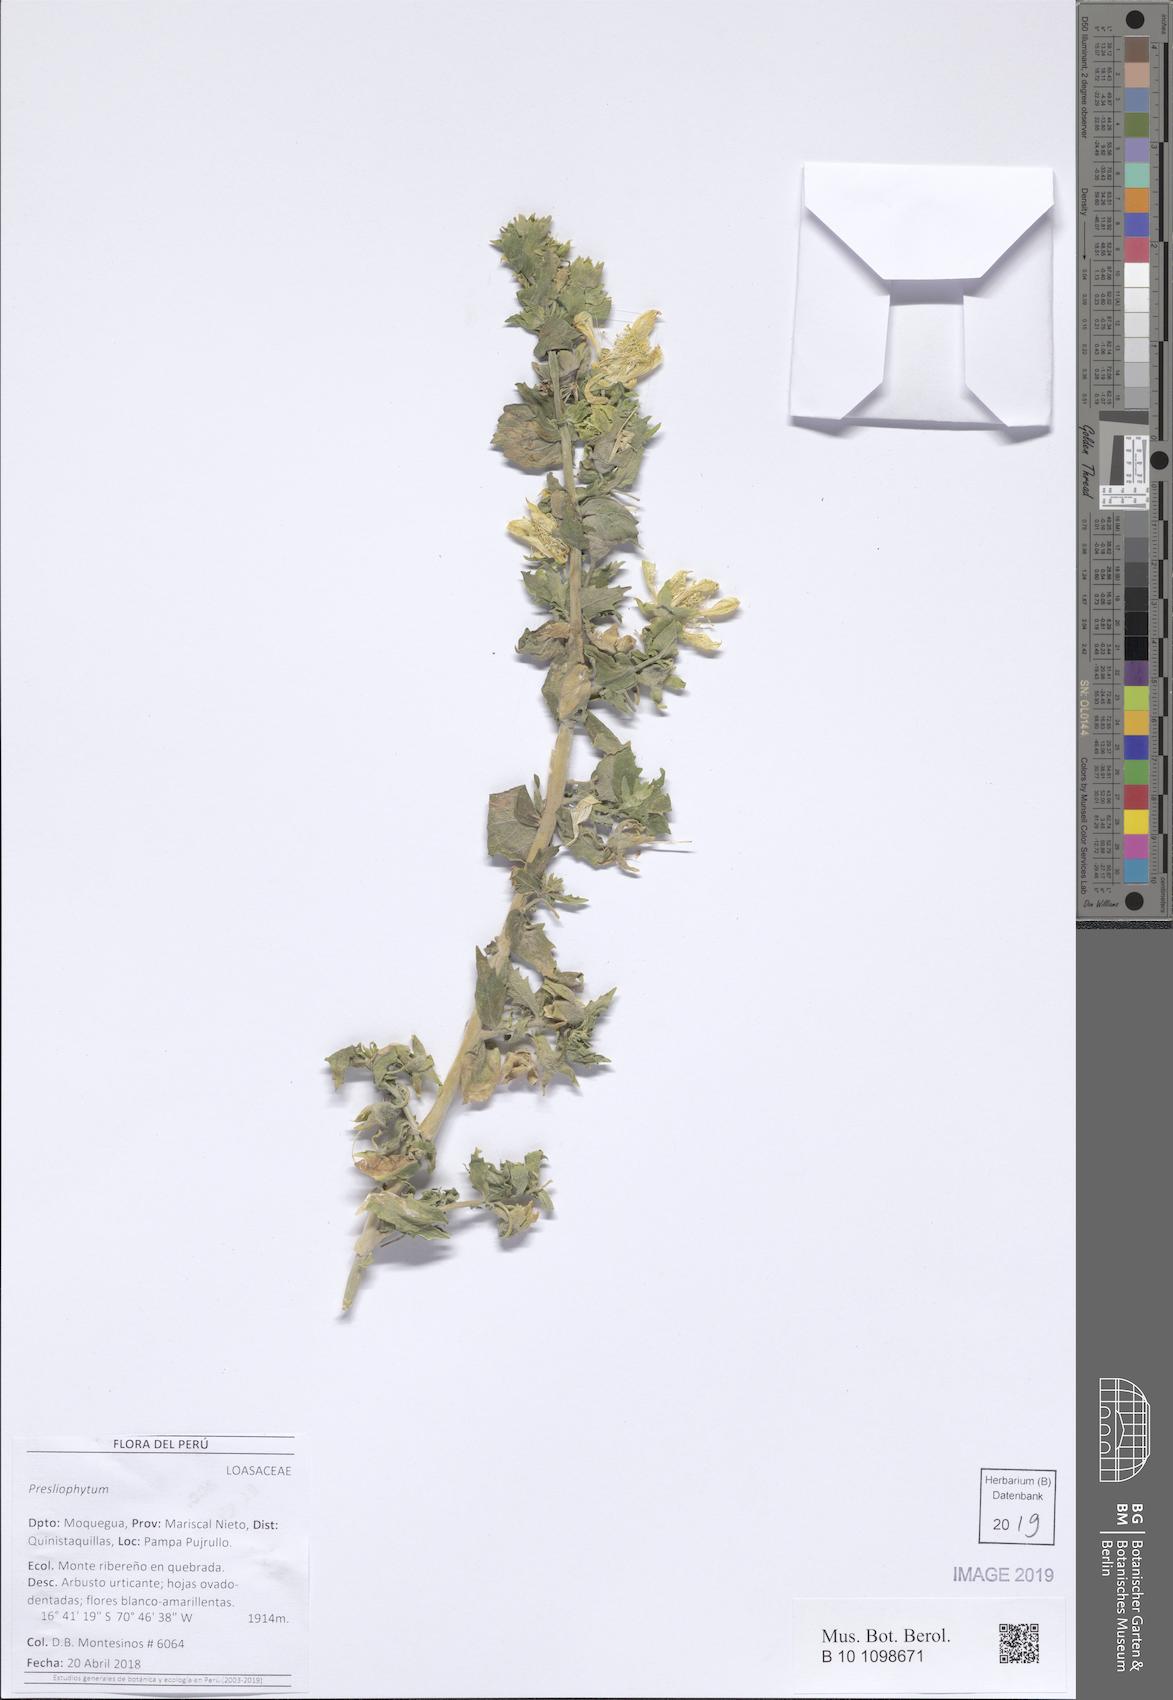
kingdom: Plantae
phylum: Tracheophyta
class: Magnoliopsida
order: Cornales
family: Loasaceae
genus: Presliophytum
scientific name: Presliophytum
